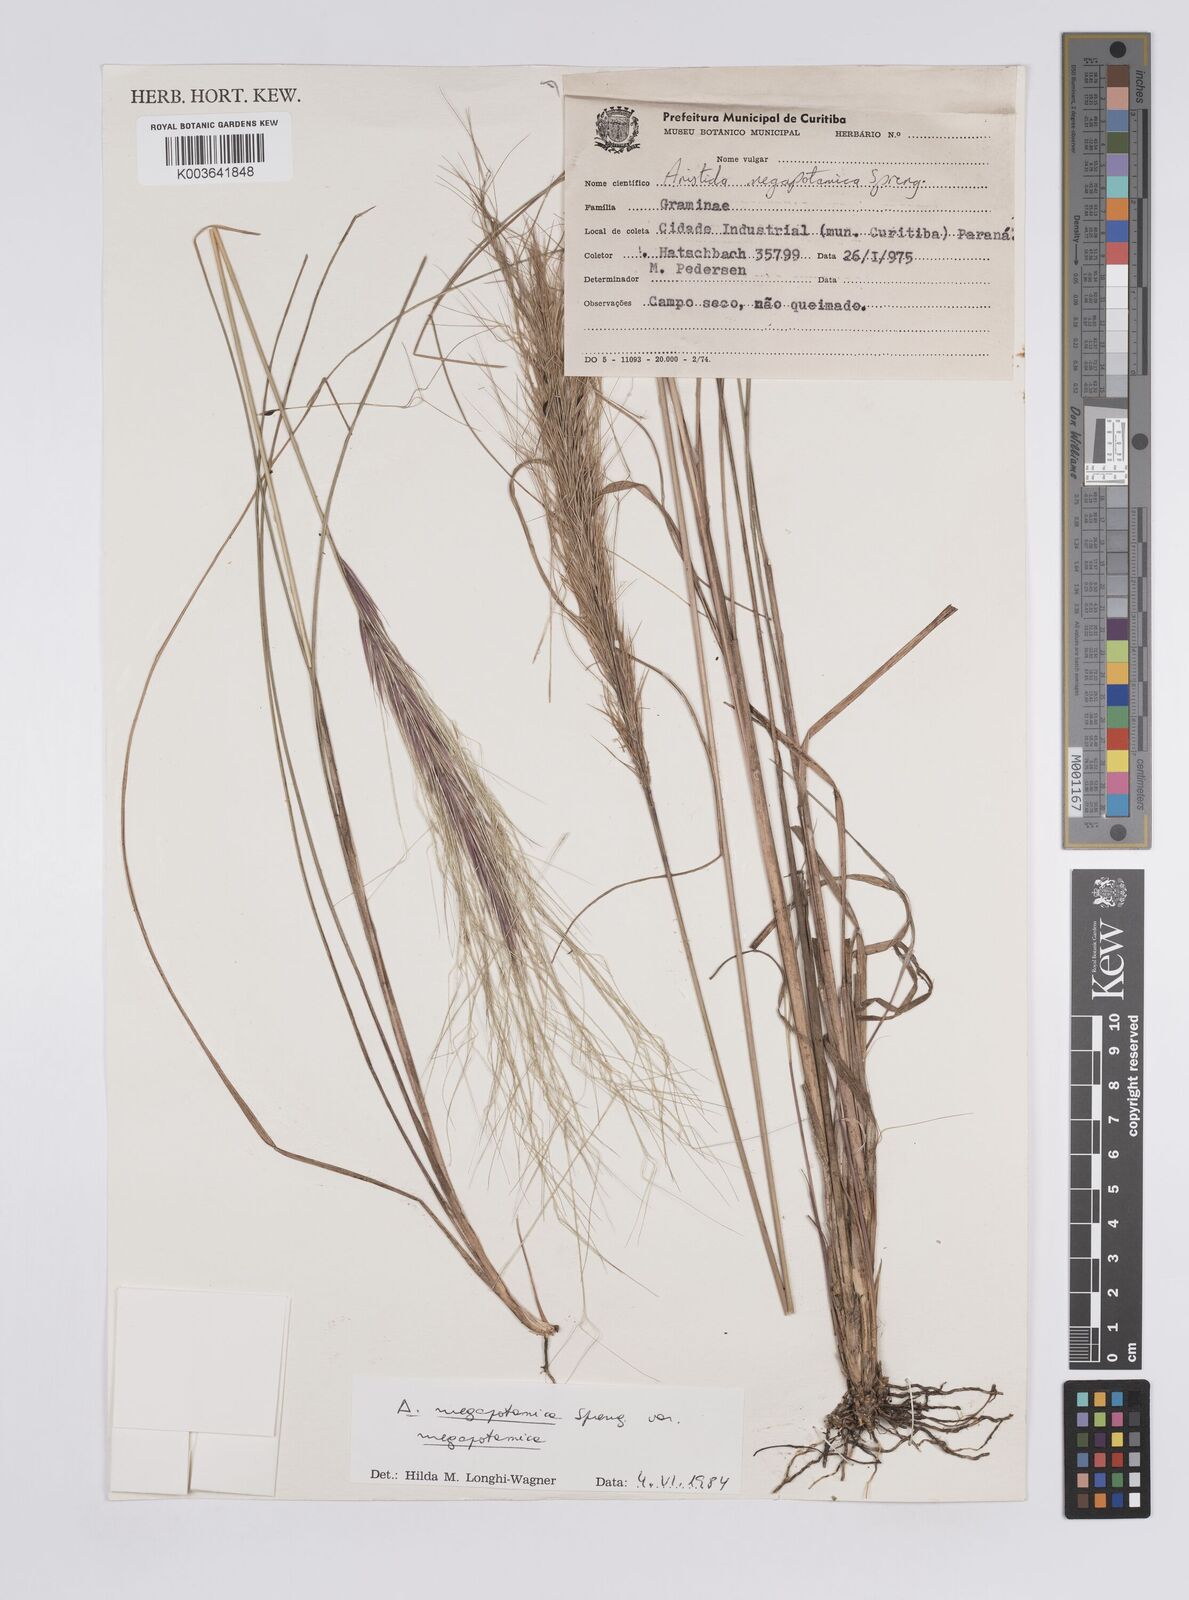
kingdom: Plantae
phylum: Tracheophyta
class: Liliopsida
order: Poales
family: Poaceae
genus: Aristida
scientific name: Aristida megapotamica
